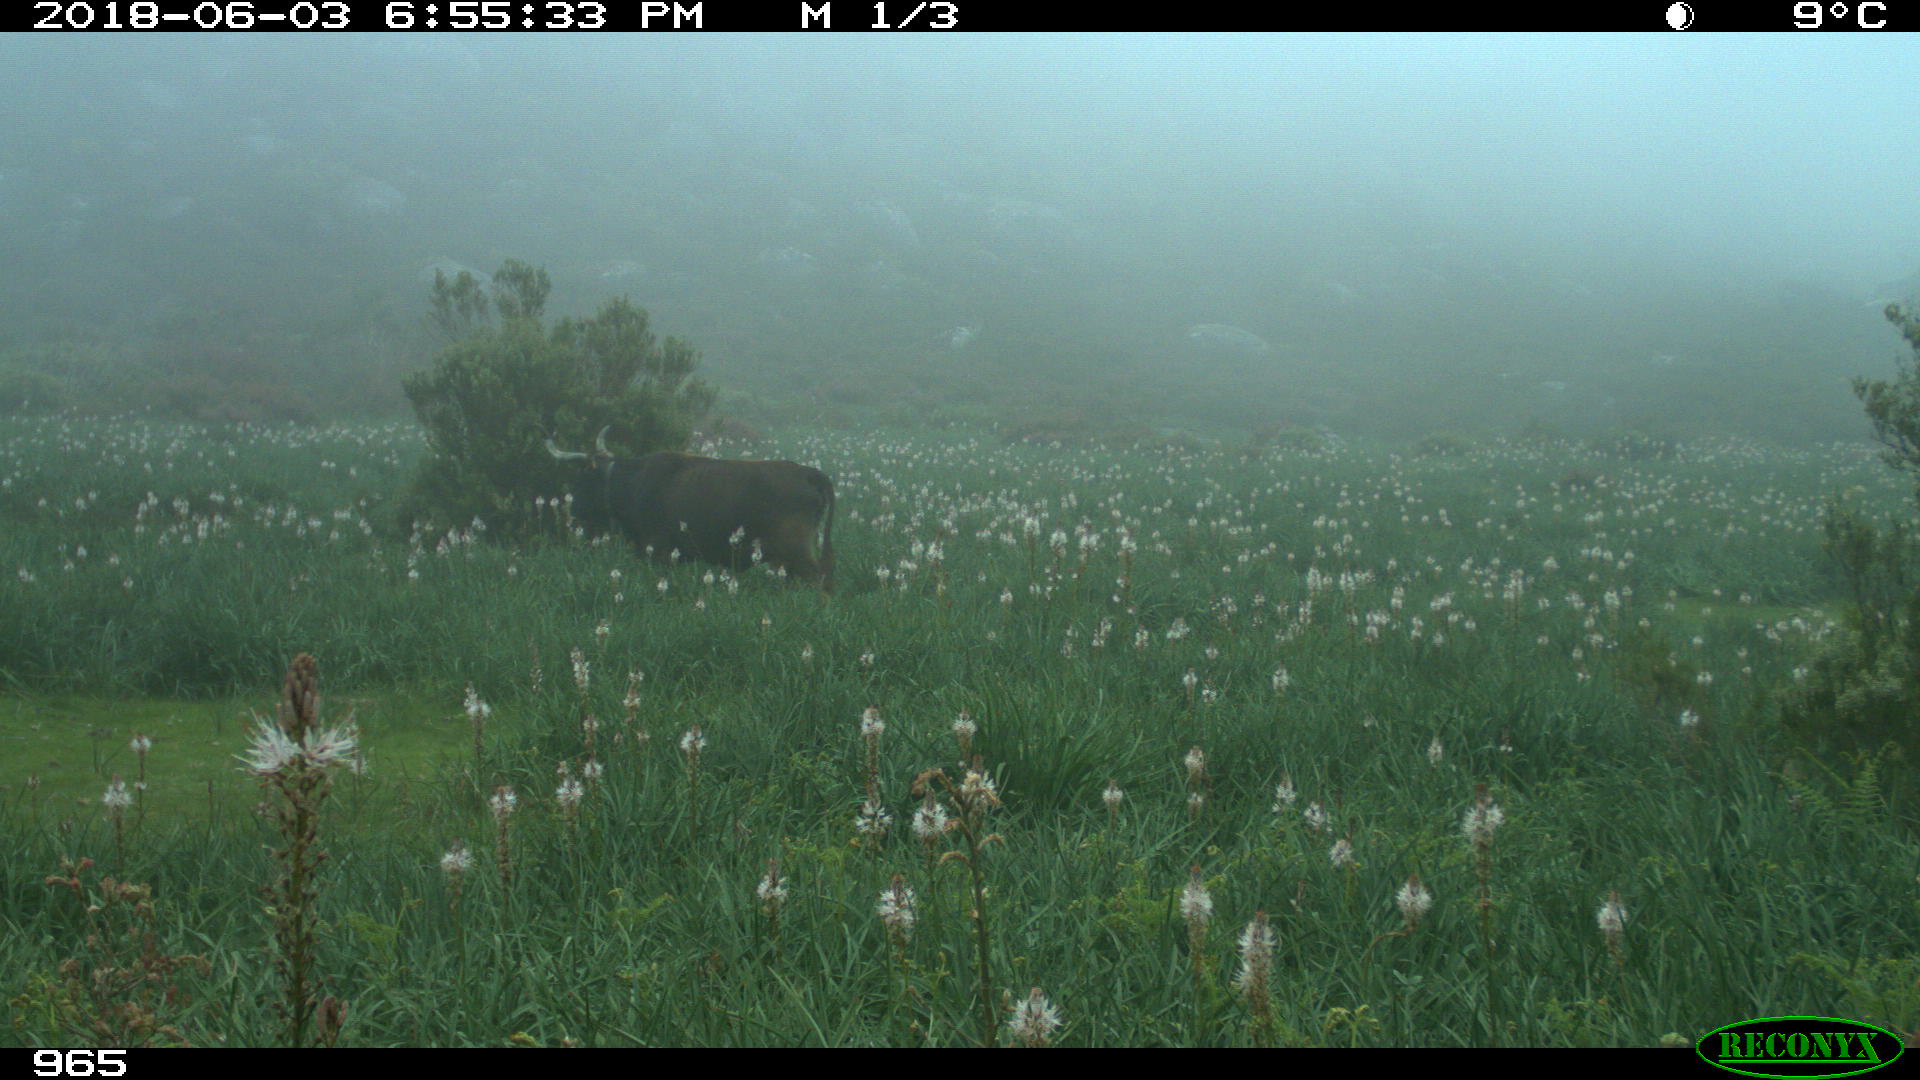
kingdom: Animalia
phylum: Chordata
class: Mammalia
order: Artiodactyla
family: Bovidae
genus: Bos
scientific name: Bos taurus
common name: Domesticated cattle
